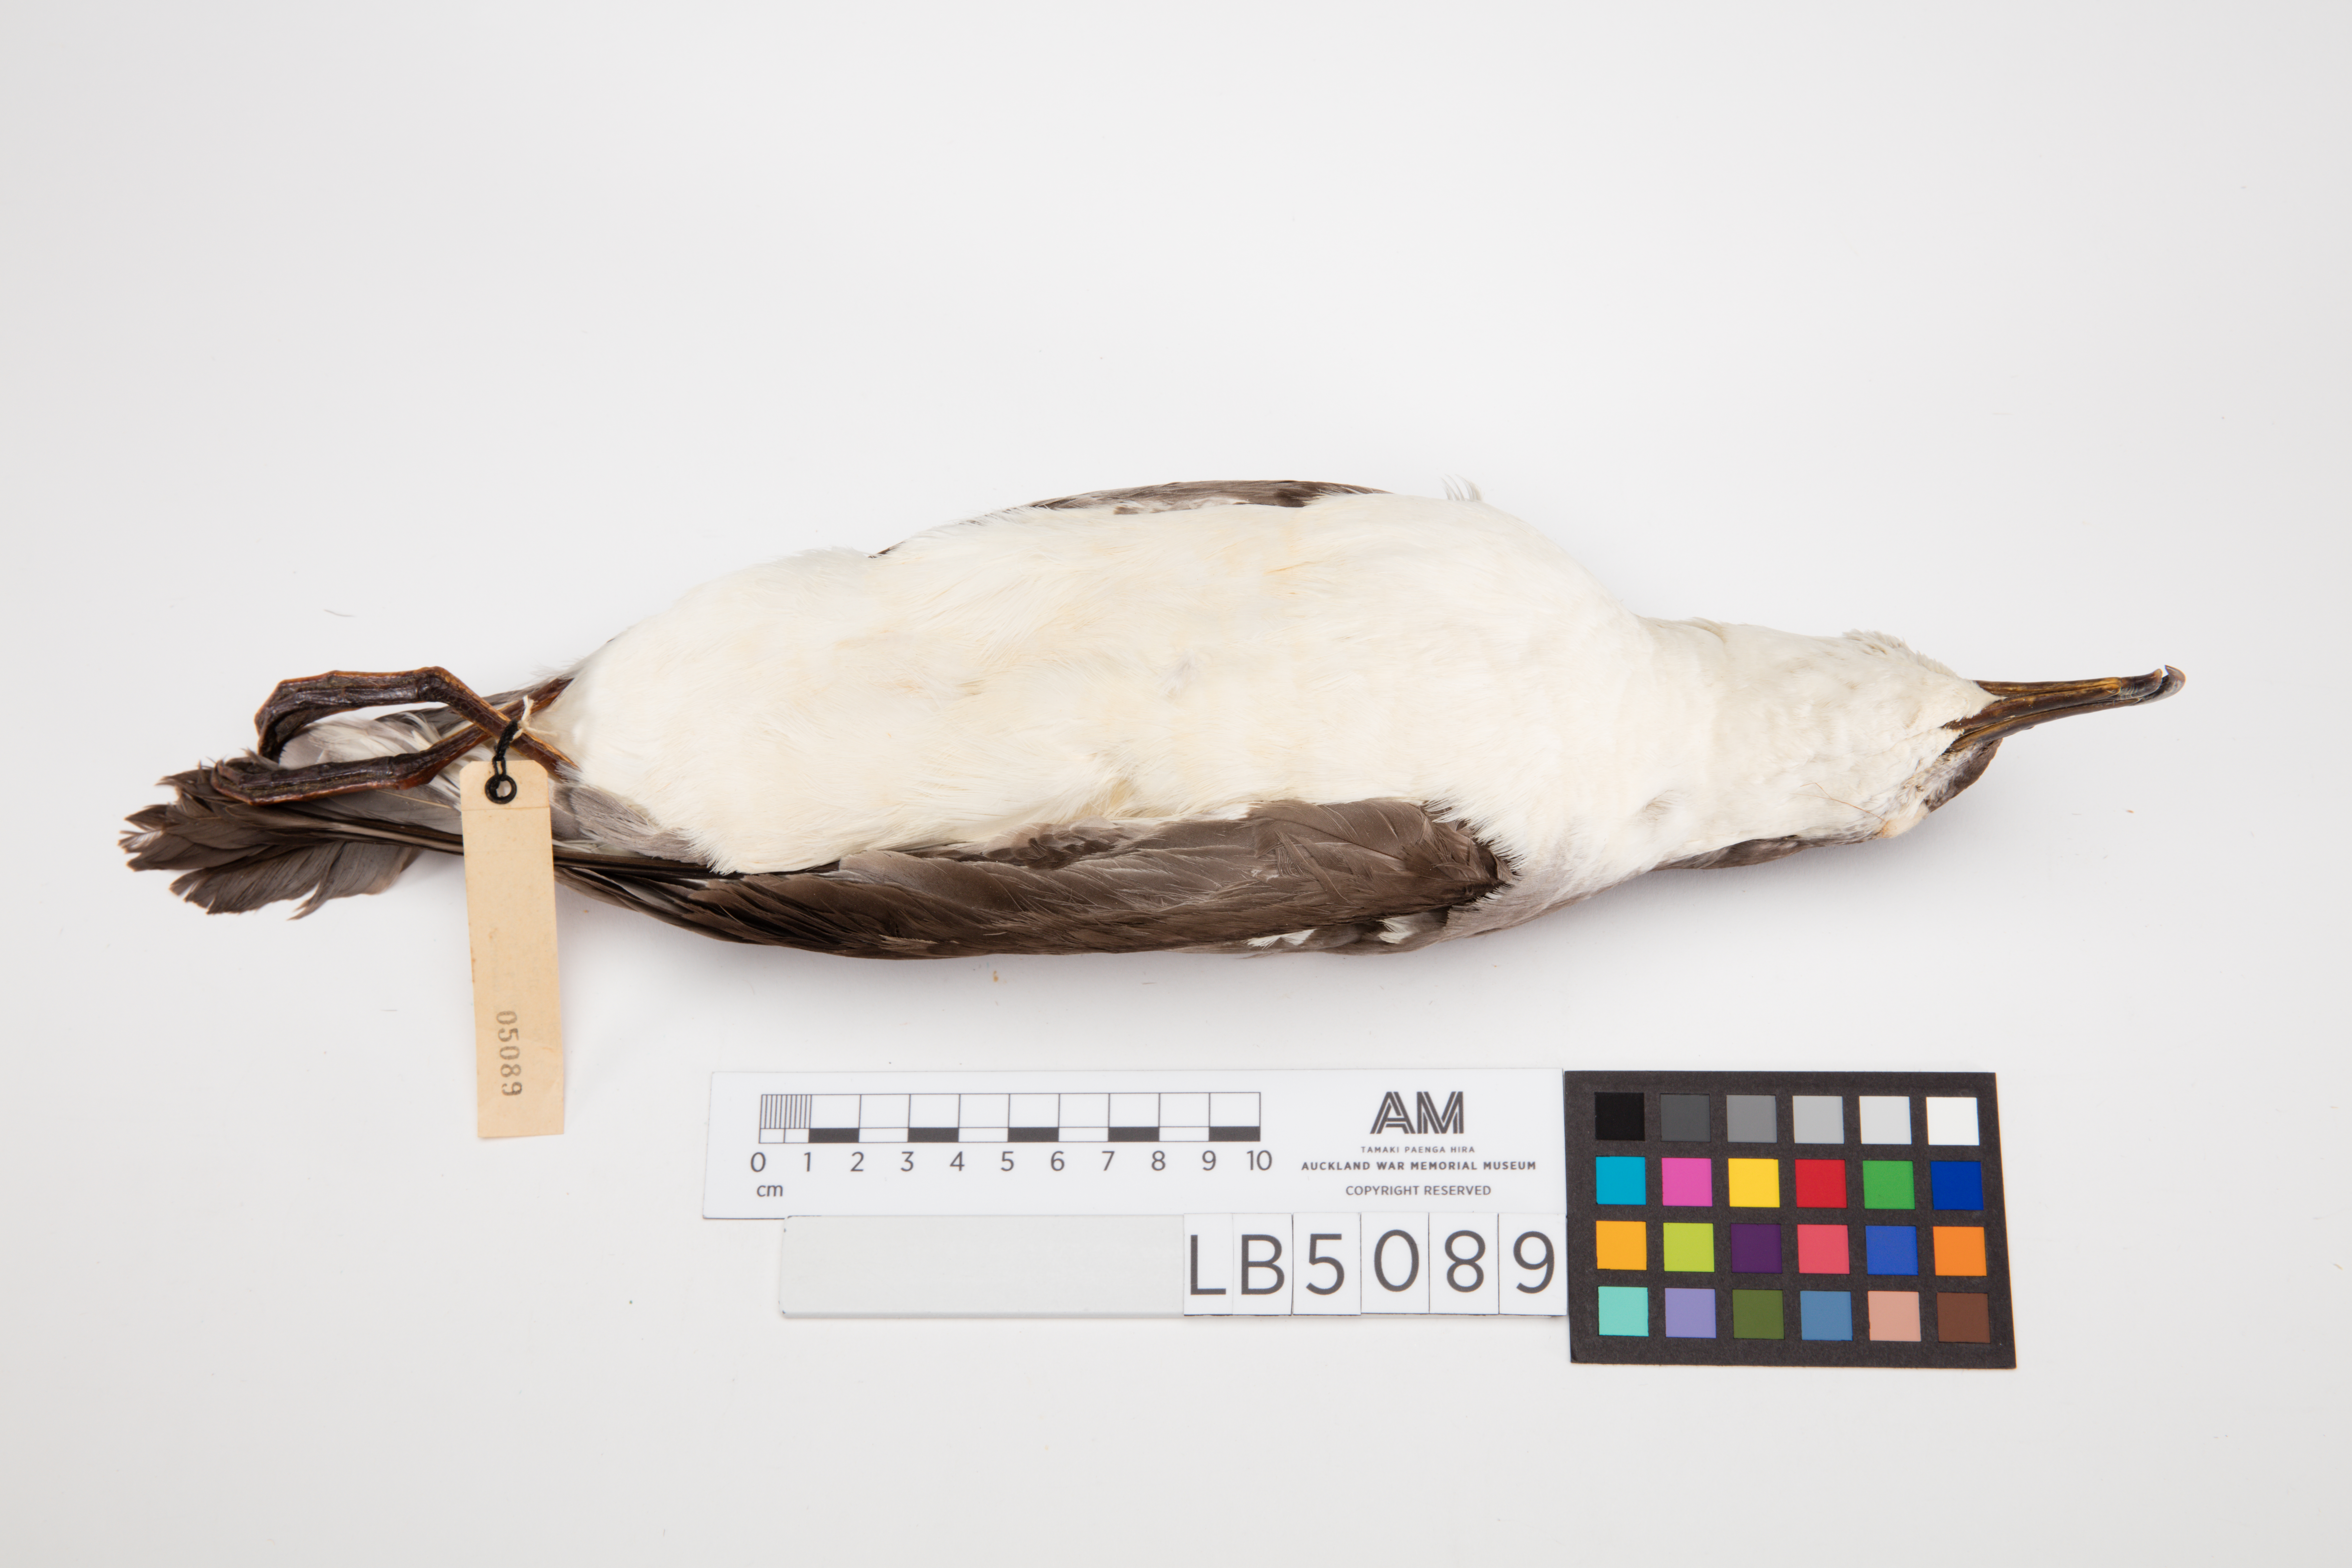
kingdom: Animalia
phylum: Chordata
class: Aves
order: Procellariiformes
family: Procellariidae
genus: Ardenna
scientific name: Ardenna
